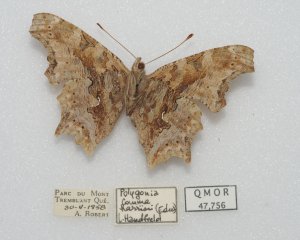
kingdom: Animalia
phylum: Arthropoda
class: Insecta
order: Lepidoptera
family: Nymphalidae
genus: Polygonia
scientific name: Polygonia comma
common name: Eastern Comma
